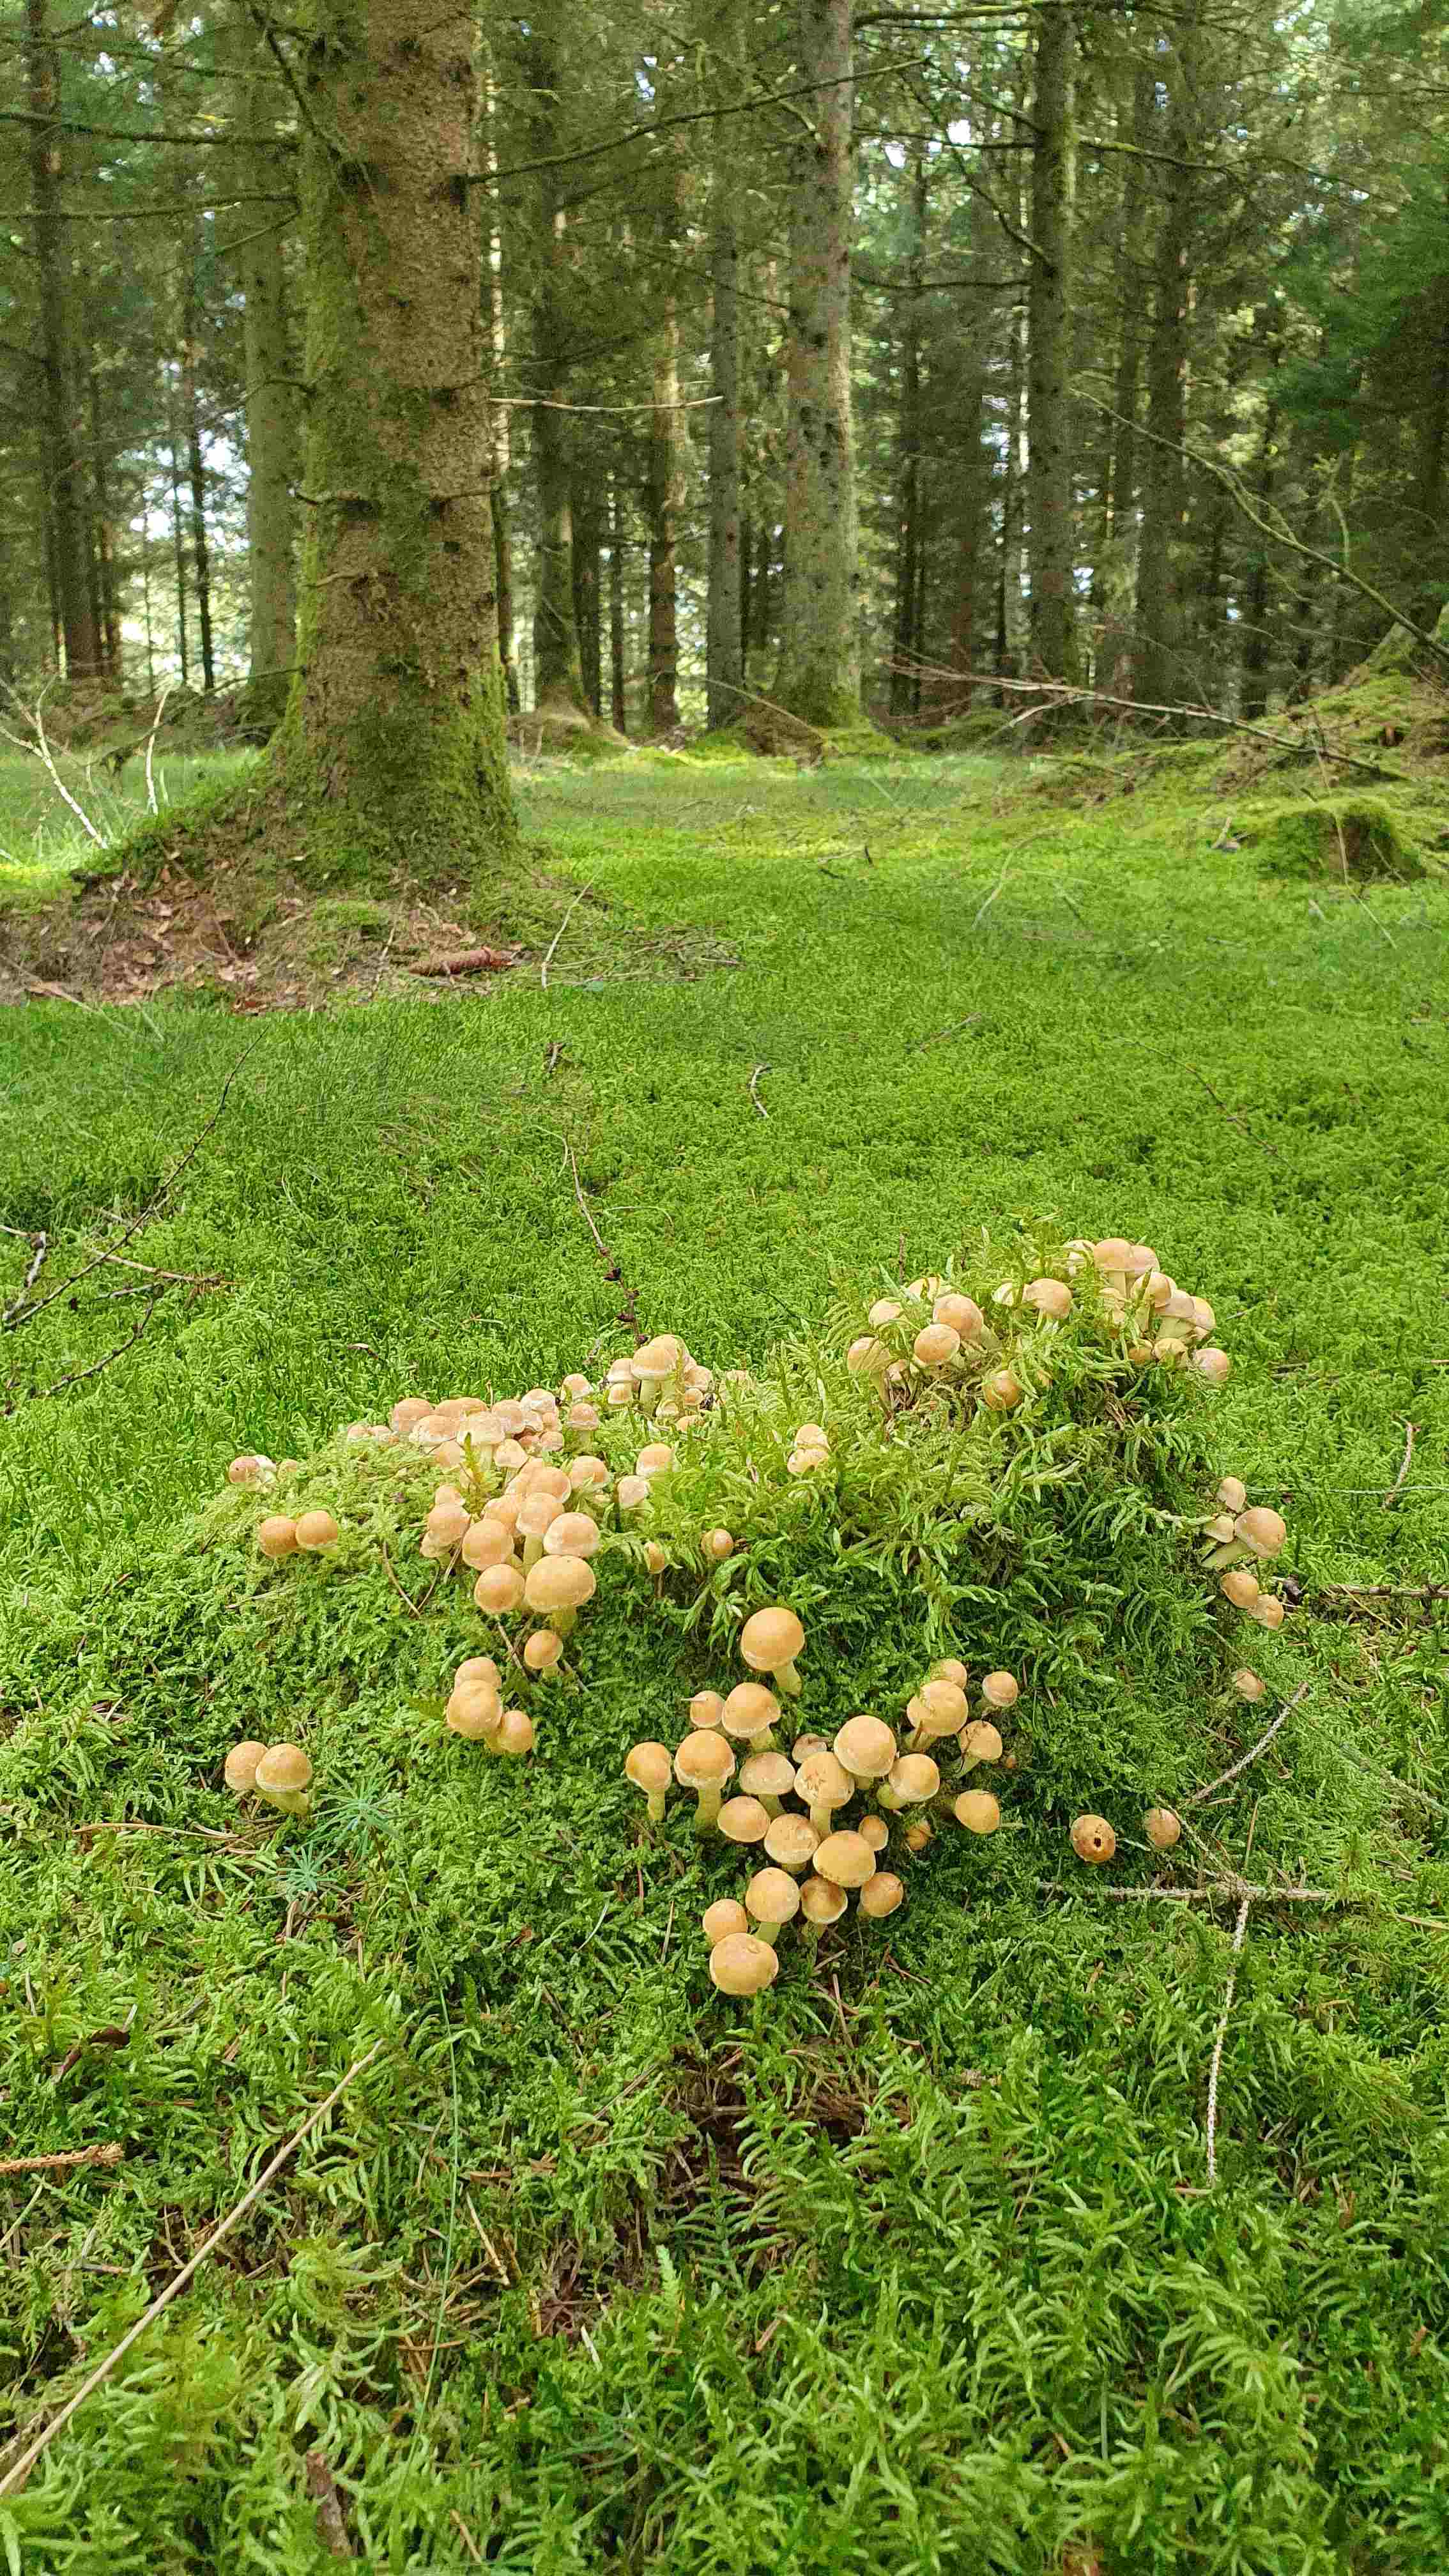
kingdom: Fungi
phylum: Basidiomycota
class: Agaricomycetes
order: Agaricales
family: Strophariaceae
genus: Hypholoma
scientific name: Hypholoma fasciculare
